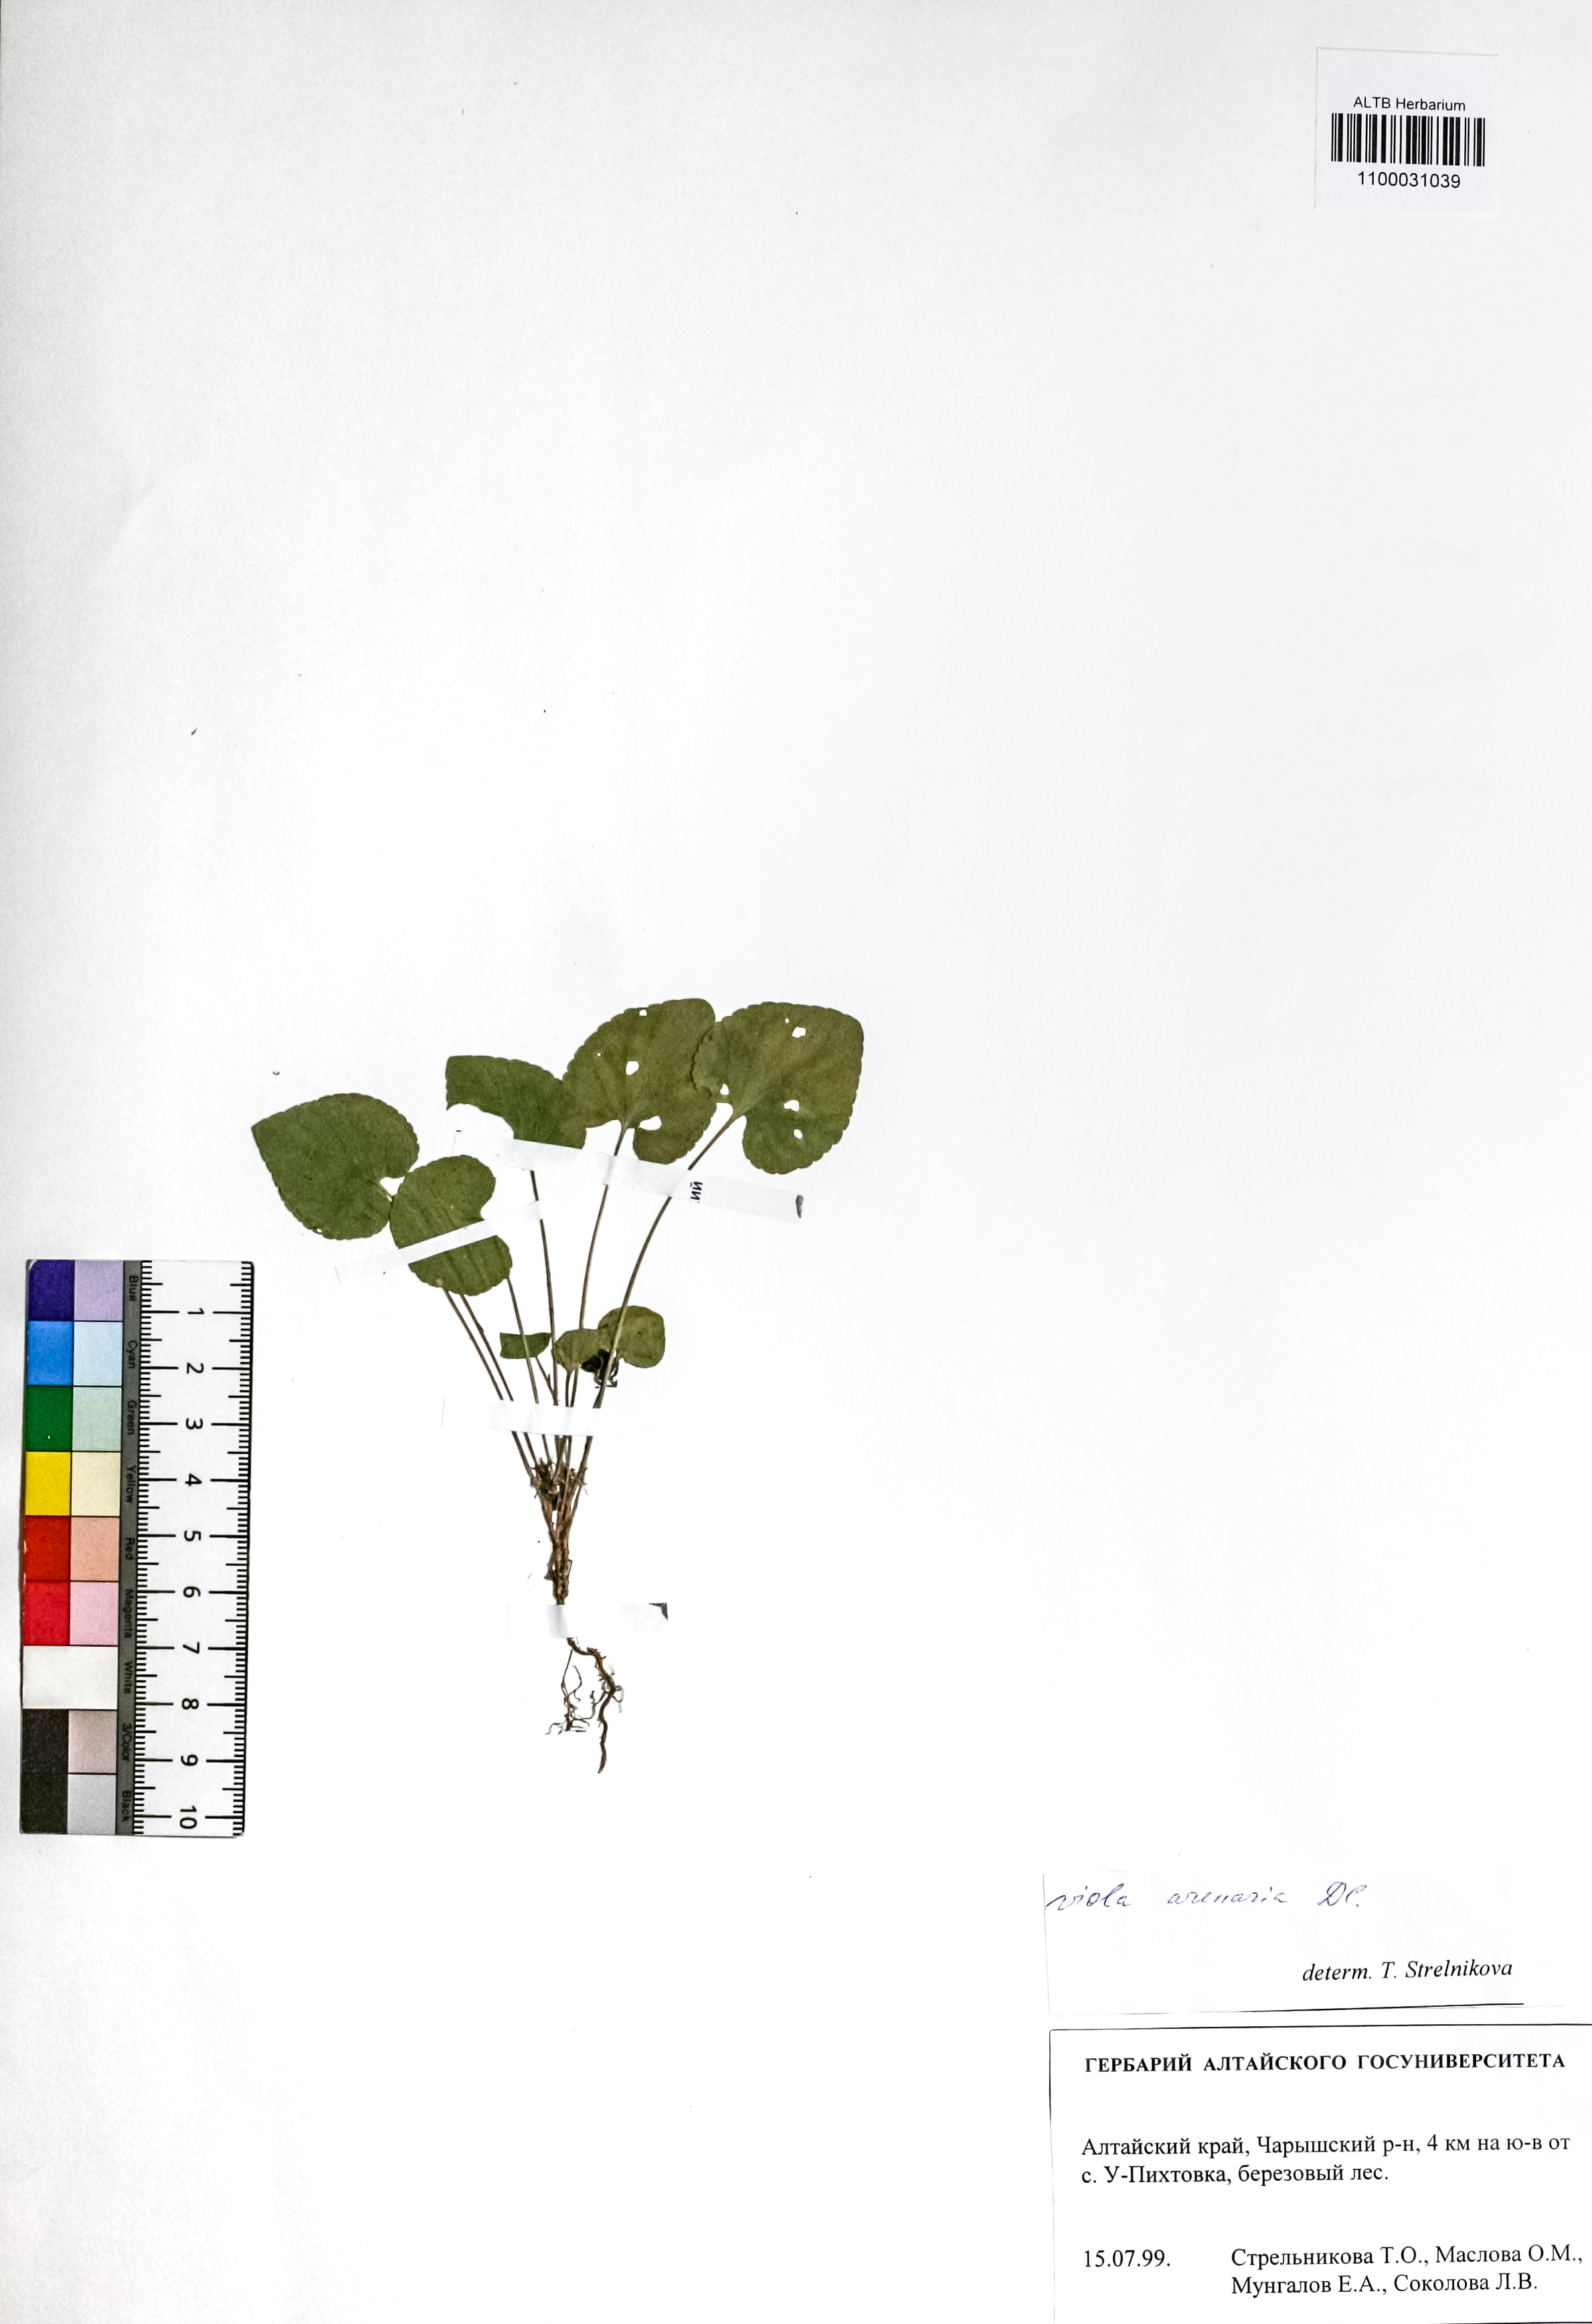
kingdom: Plantae
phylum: Tracheophyta
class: Magnoliopsida
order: Malpighiales
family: Violaceae
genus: Viola
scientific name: Viola rupestris
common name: Teesdale violet
